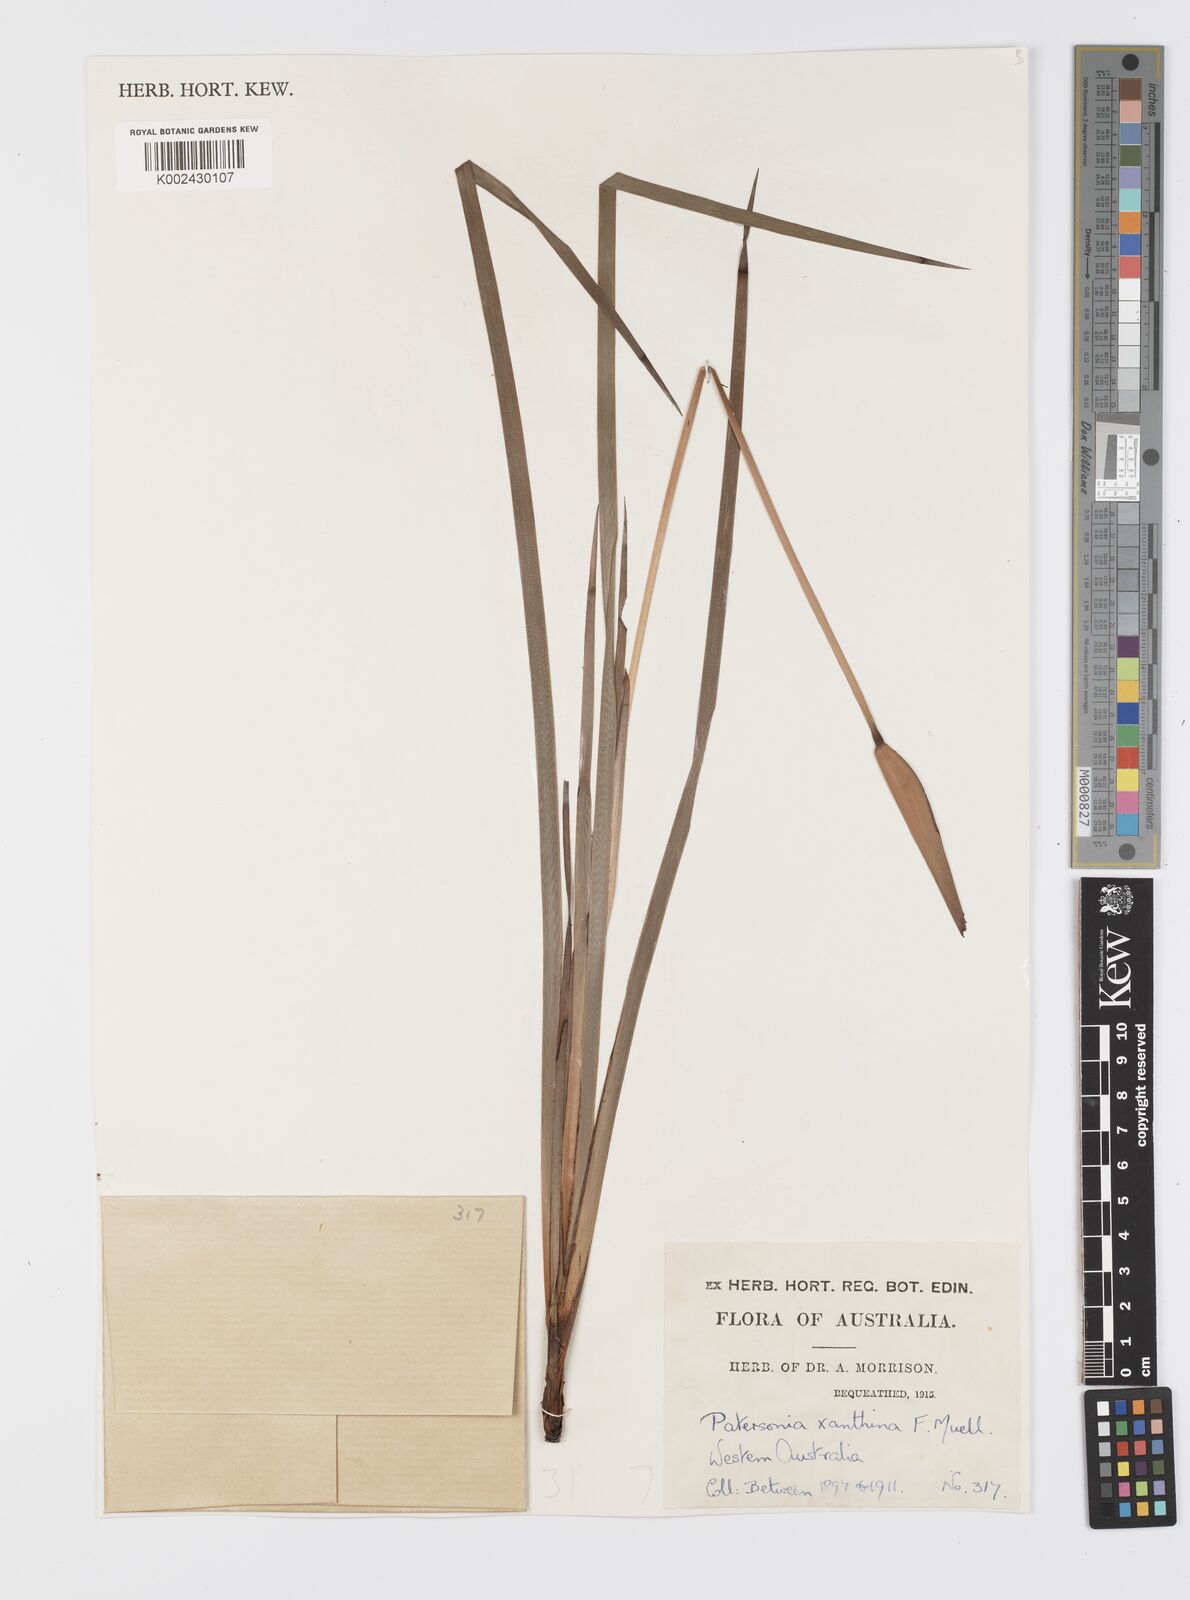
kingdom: Plantae
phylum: Tracheophyta
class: Liliopsida
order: Asparagales
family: Iridaceae
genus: Patersonia
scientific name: Patersonia umbrosa
